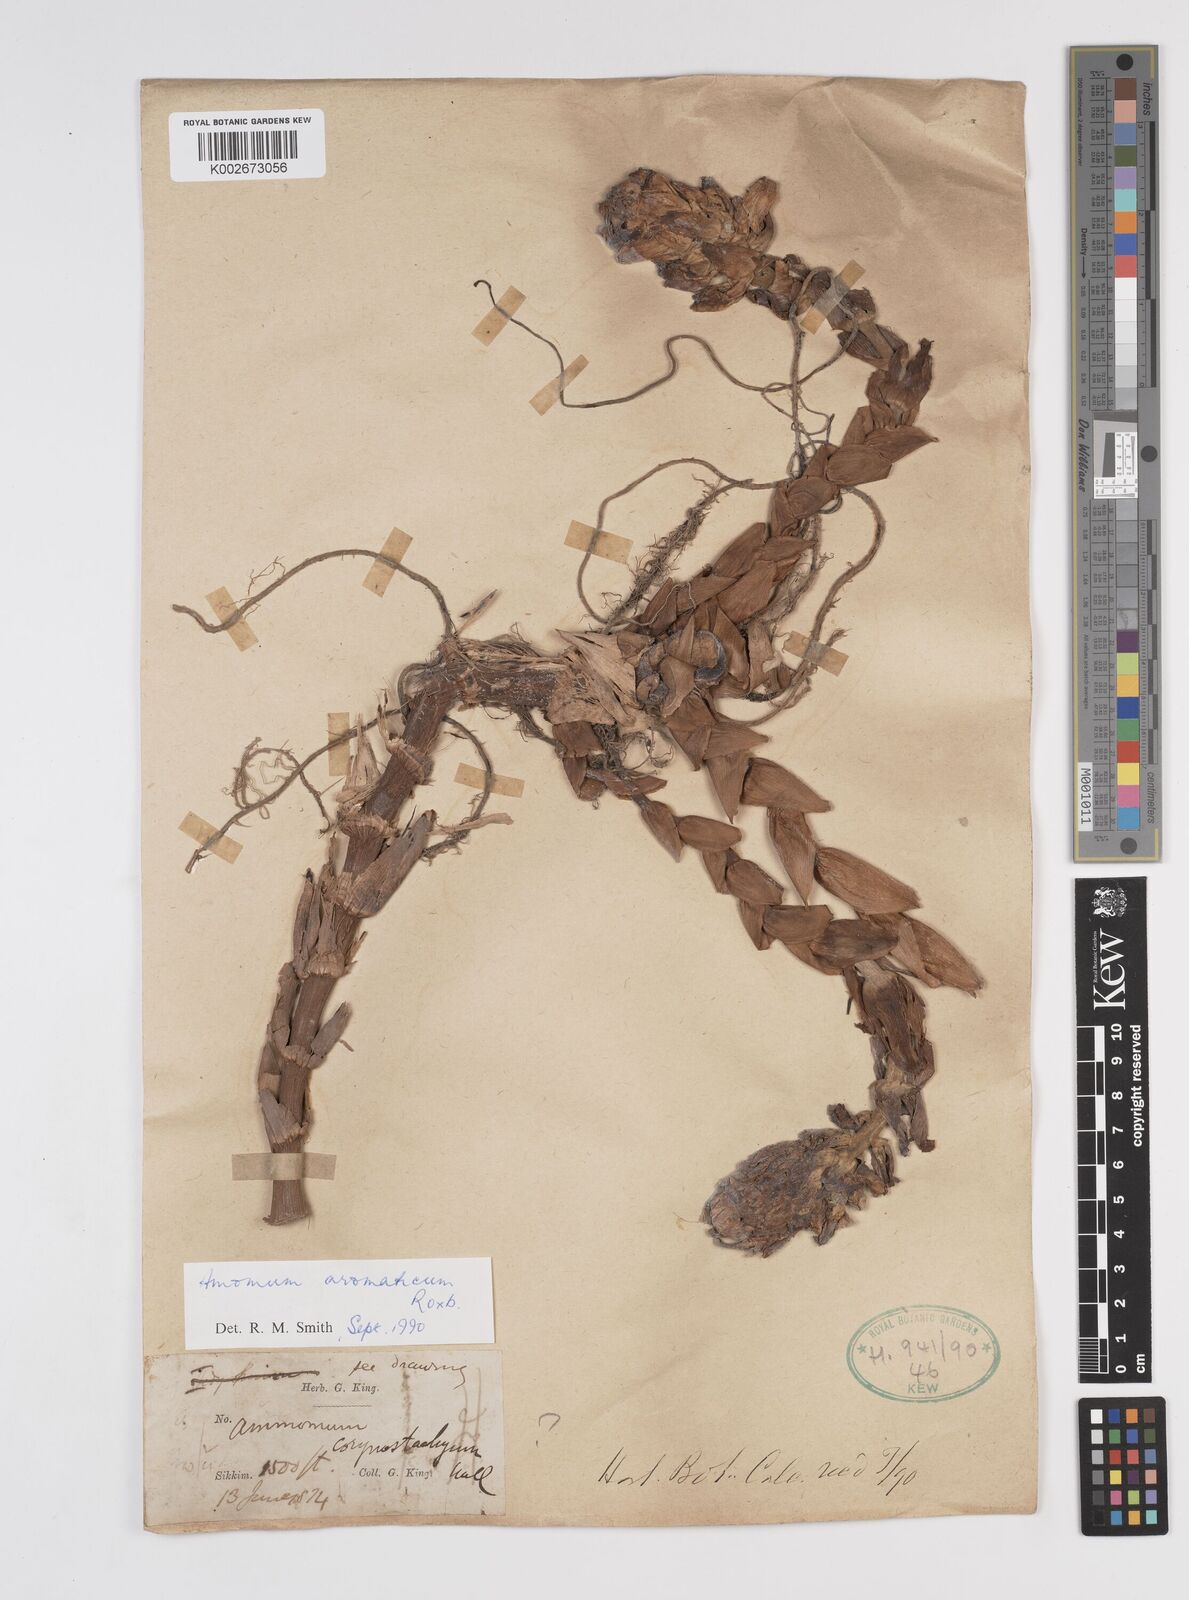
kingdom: Plantae
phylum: Tracheophyta
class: Liliopsida
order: Zingiberales
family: Zingiberaceae
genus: Wurfbainia
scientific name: Wurfbainia aromatica
